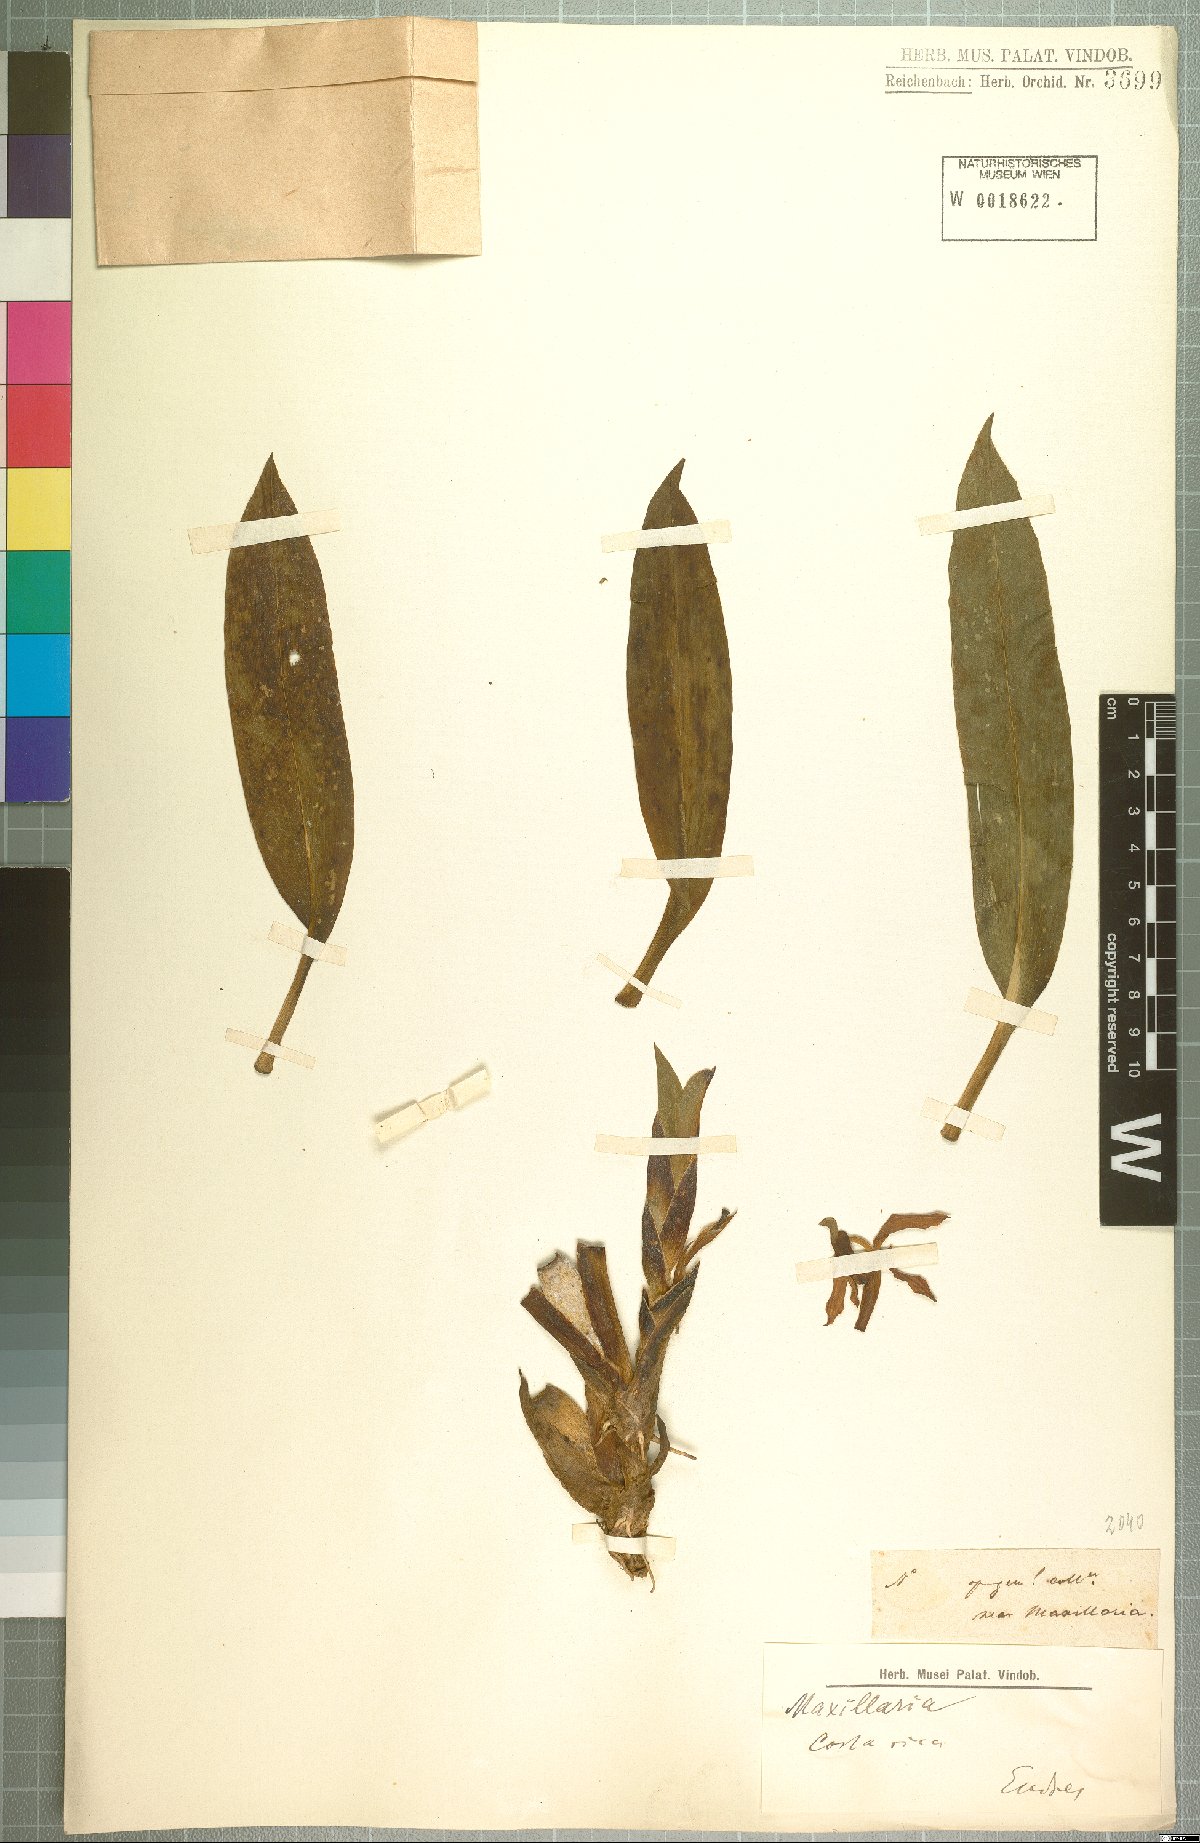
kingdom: Plantae
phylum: Tracheophyta
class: Liliopsida
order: Asparagales
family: Orchidaceae
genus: Maxillaria
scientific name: Maxillaria
